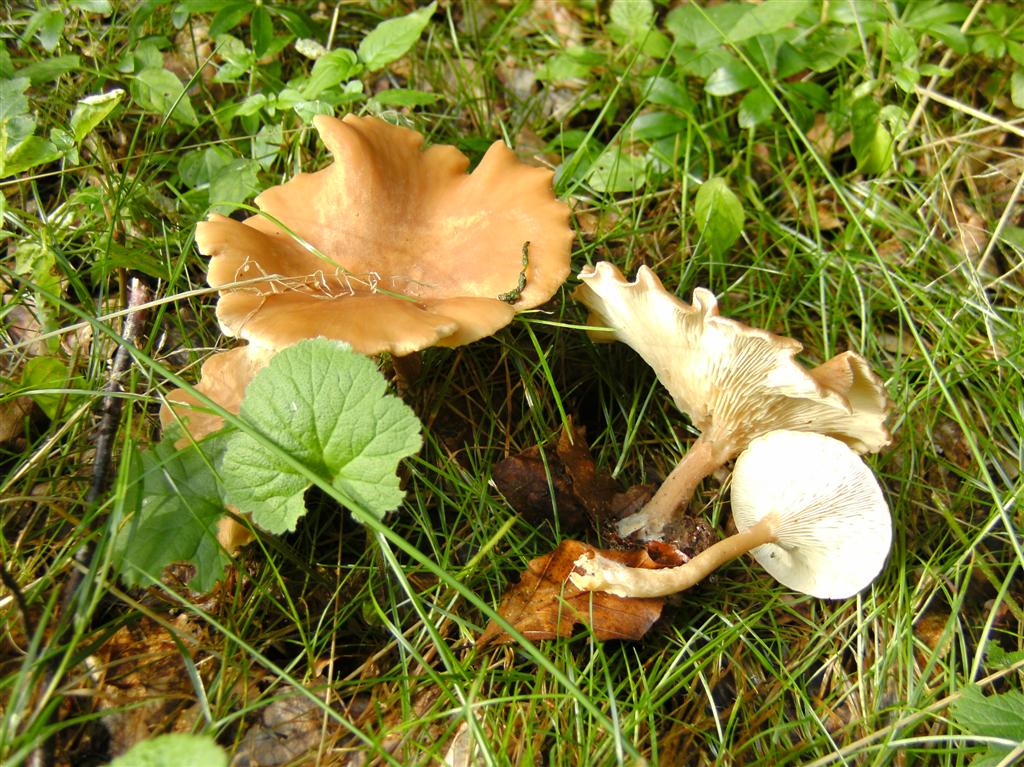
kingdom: Fungi
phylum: Basidiomycota
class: Agaricomycetes
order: Agaricales
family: Tricholomataceae
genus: Infundibulicybe
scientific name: Infundibulicybe gibba
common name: almindelig tragthat
